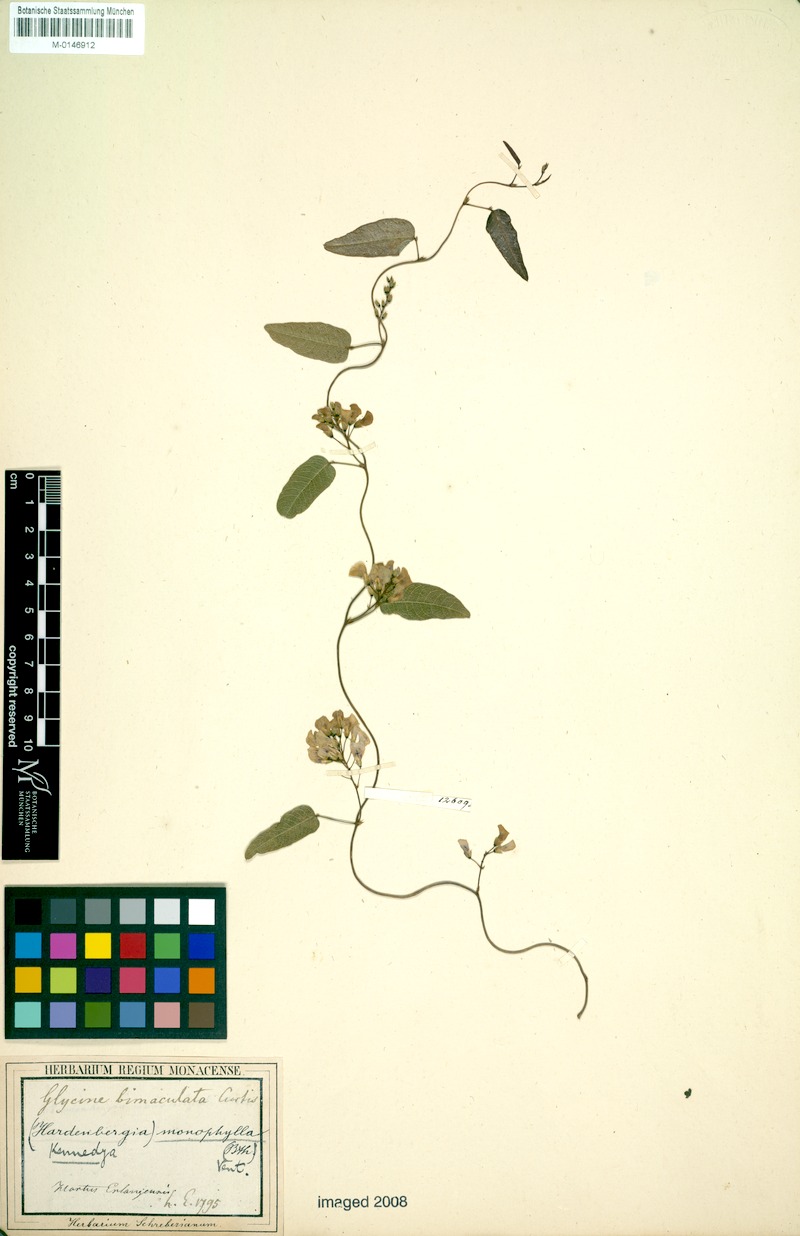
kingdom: Plantae
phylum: Tracheophyta
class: Magnoliopsida
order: Fabales
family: Fabaceae
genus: Hardenbergia
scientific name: Hardenbergia violacea
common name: Coral-pea
